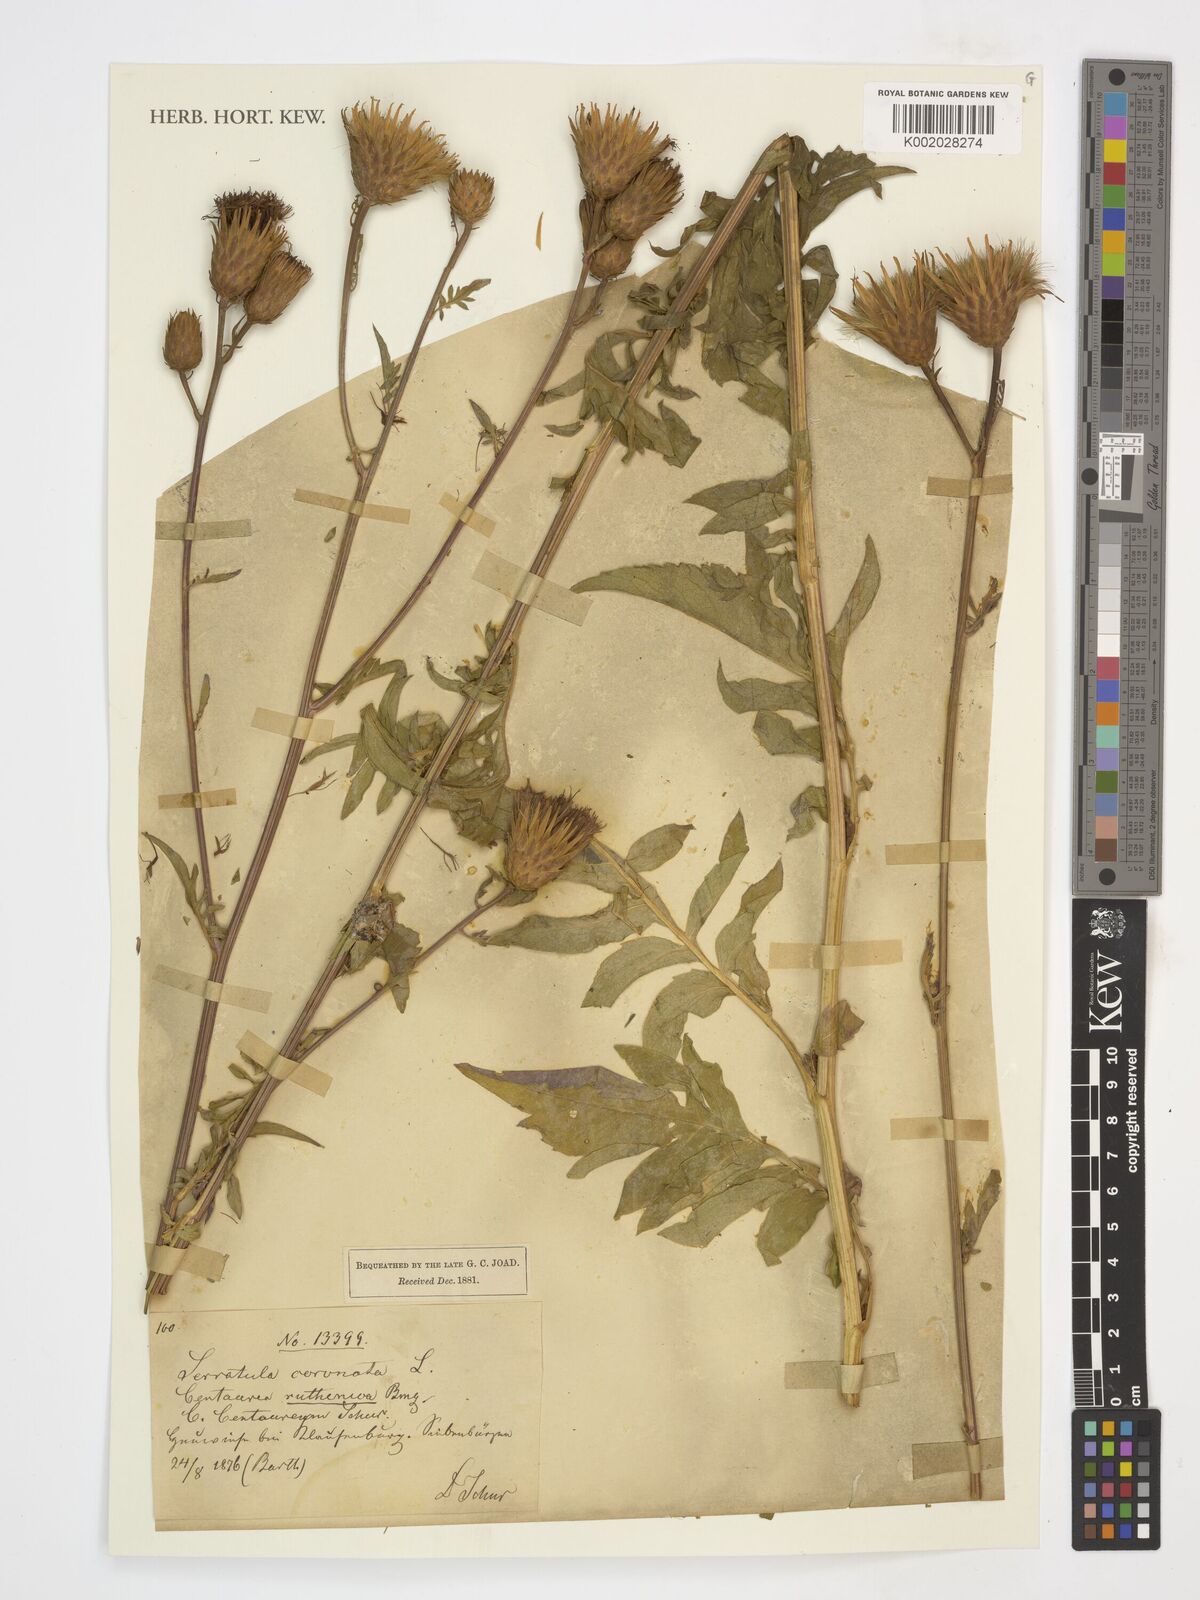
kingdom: Plantae
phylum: Tracheophyta
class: Magnoliopsida
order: Asterales
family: Asteraceae
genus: Serratula
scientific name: Serratula tinctoria
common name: Saw-wort
